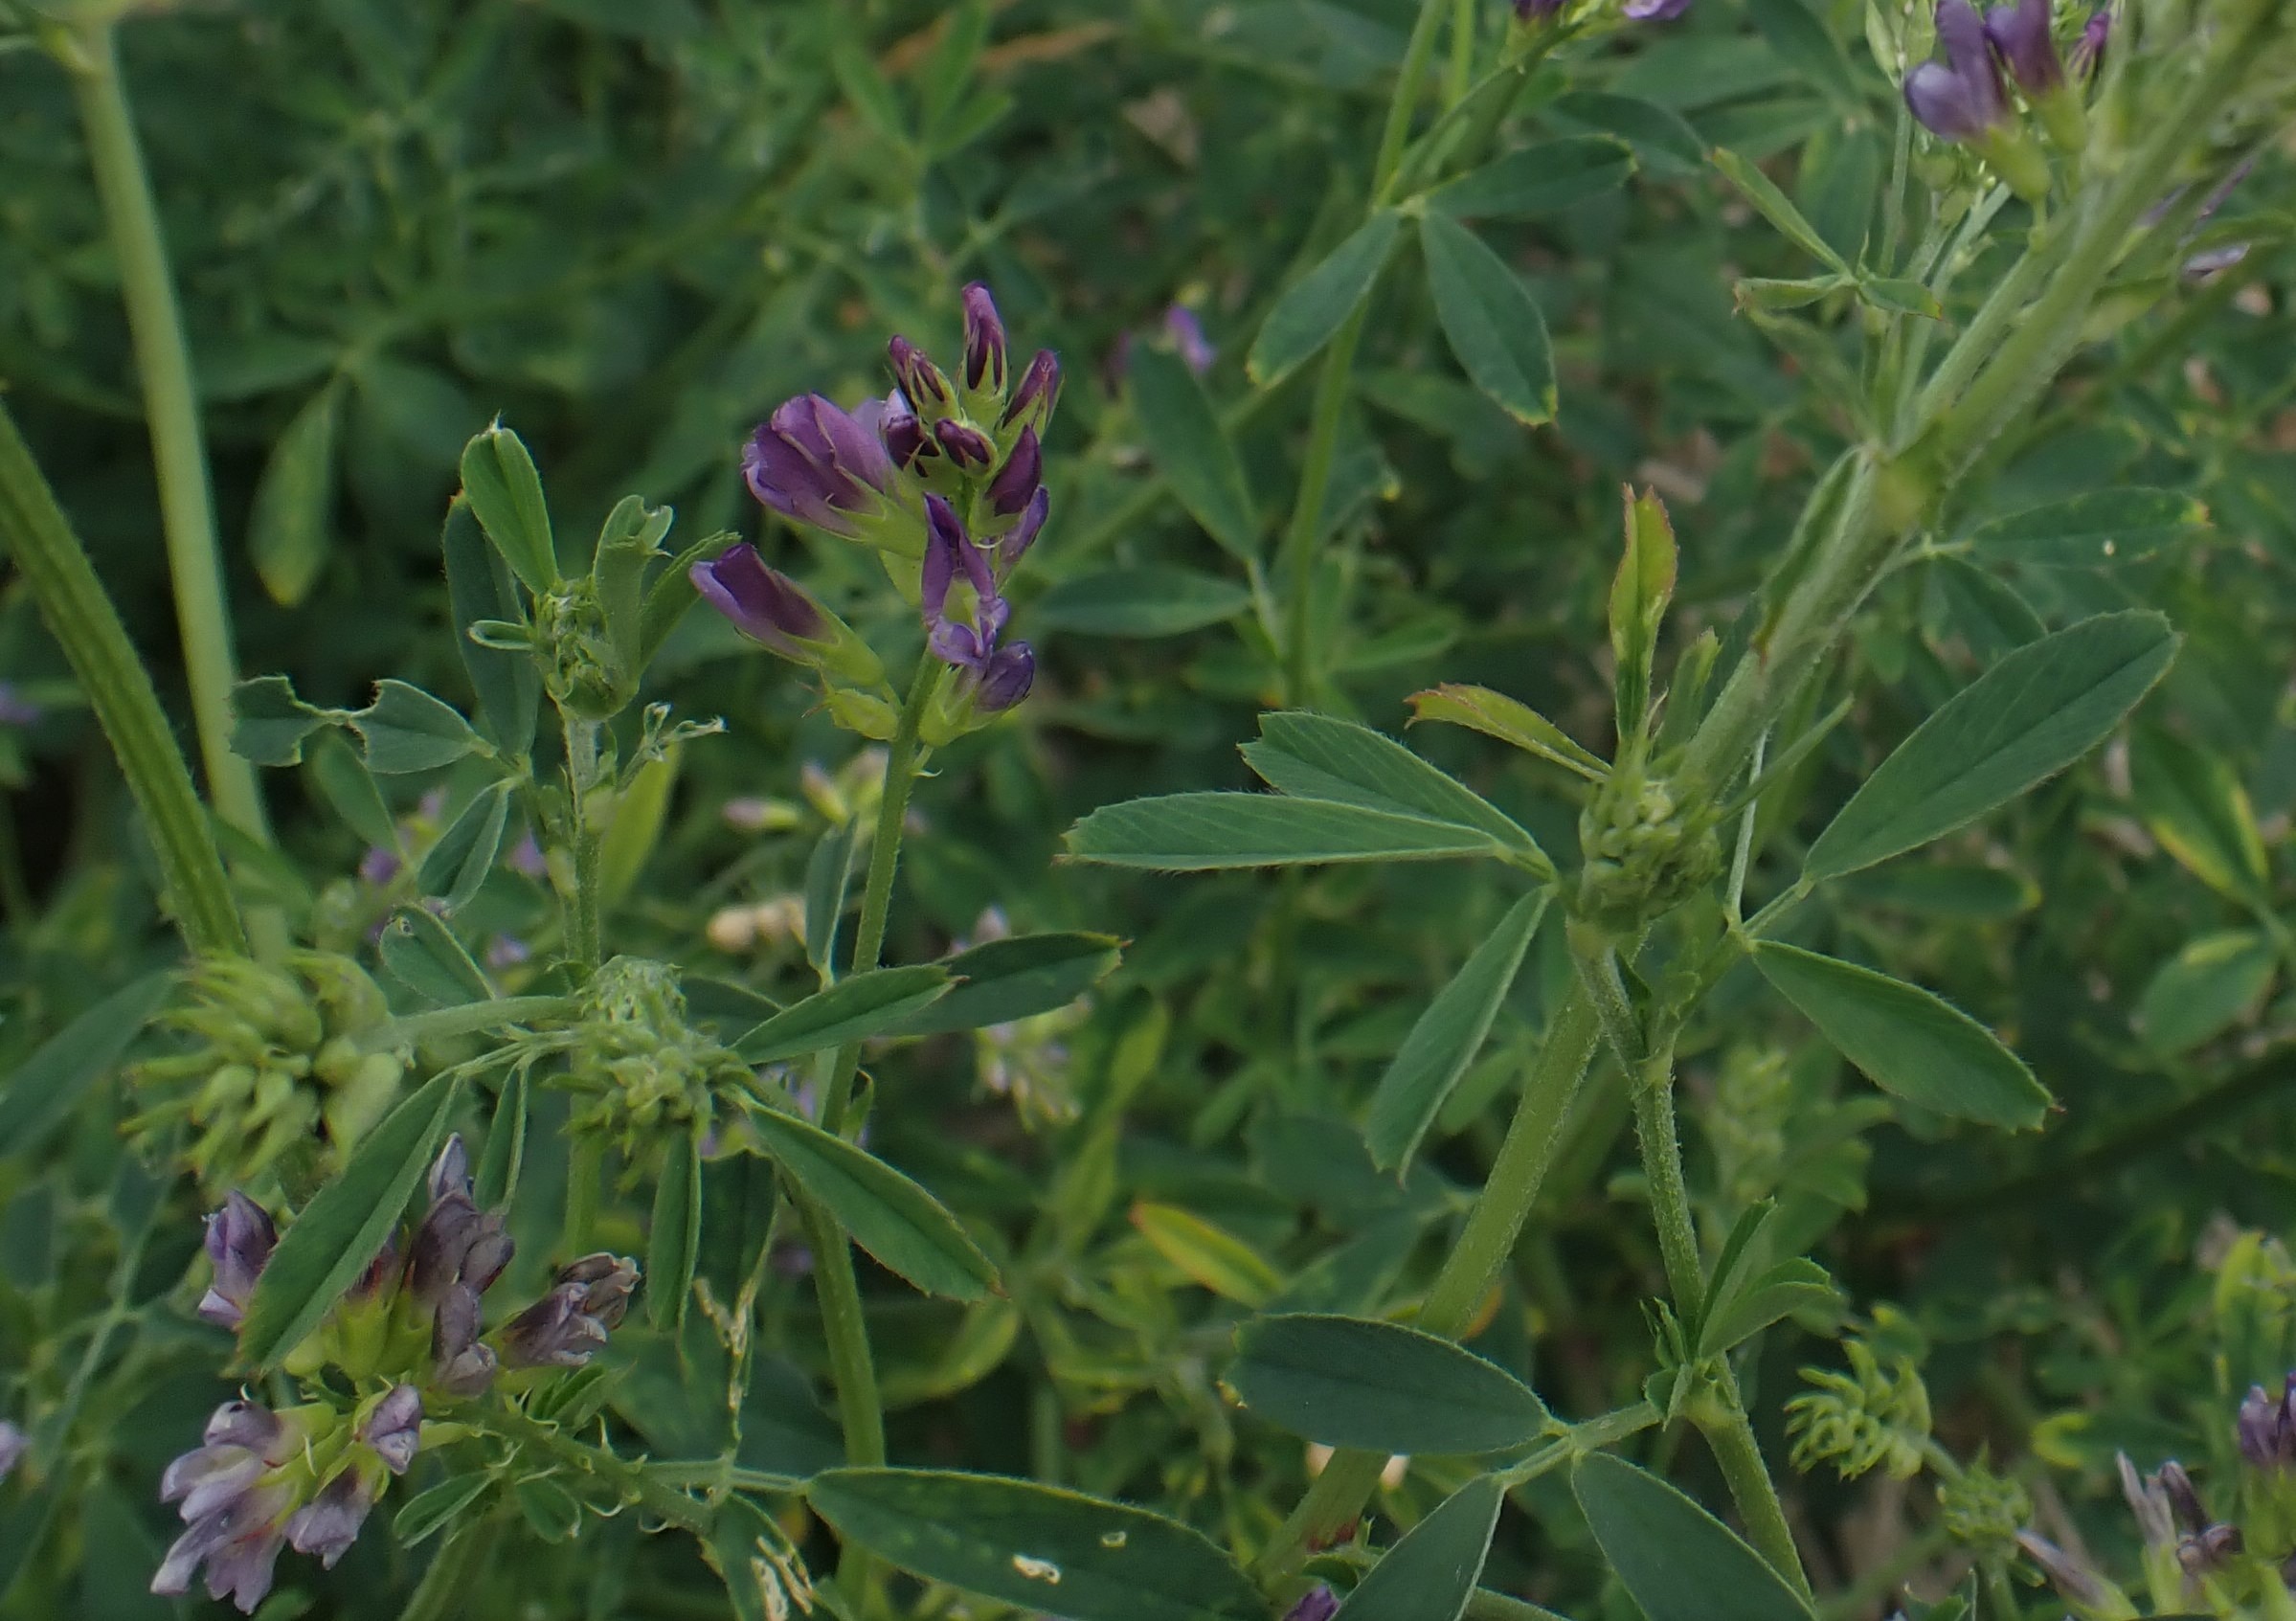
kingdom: Plantae
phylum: Tracheophyta
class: Magnoliopsida
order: Fabales
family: Fabaceae
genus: Medicago
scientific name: Medicago sativa
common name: Lucerne
